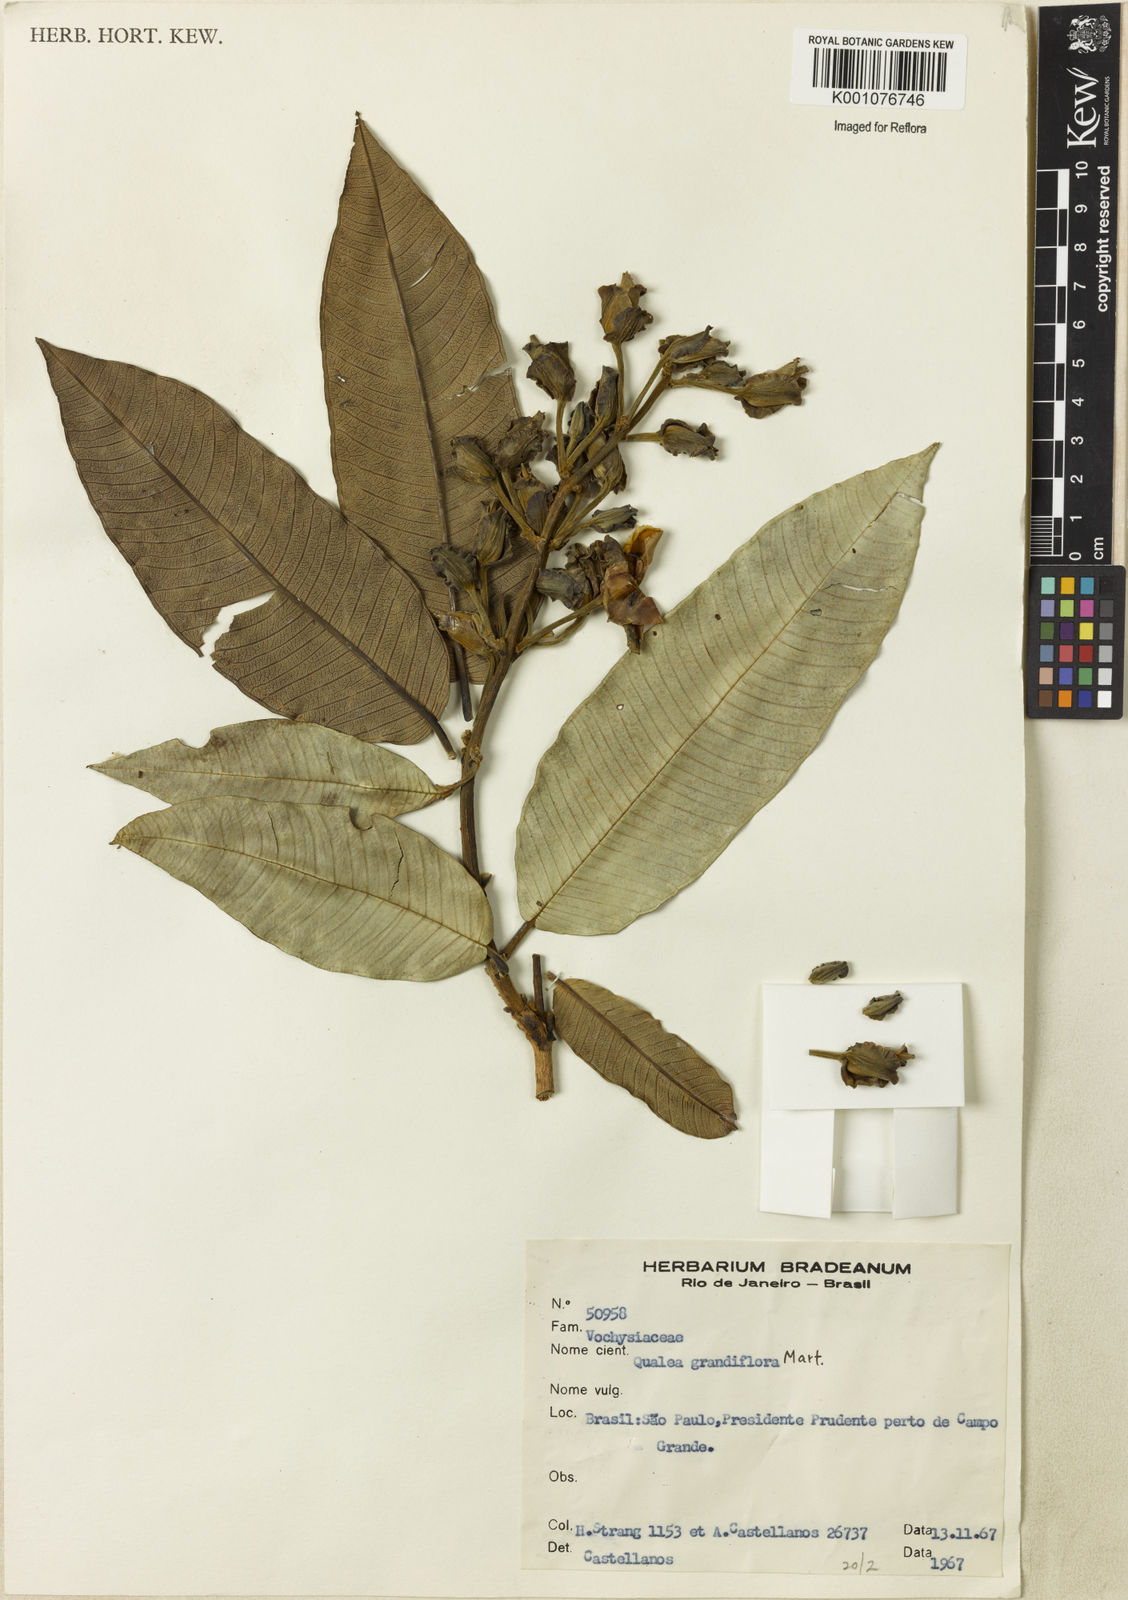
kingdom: Plantae
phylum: Tracheophyta
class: Magnoliopsida
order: Myrtales
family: Vochysiaceae
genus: Qualea
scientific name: Qualea grandiflora
